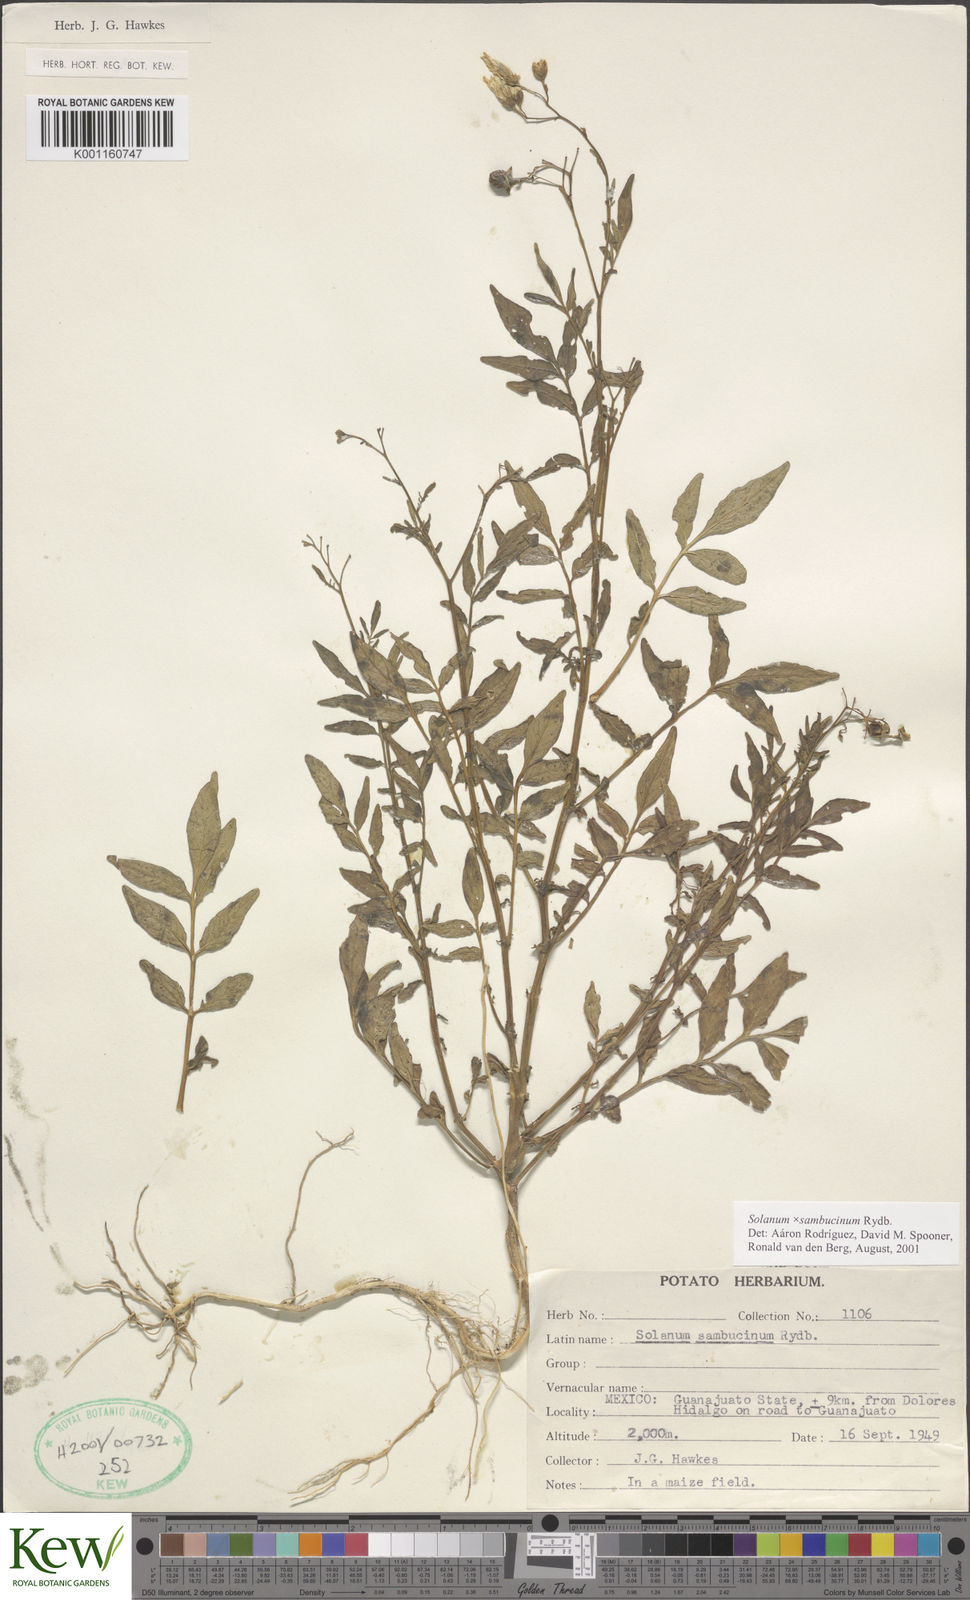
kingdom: Plantae
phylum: Tracheophyta
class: Magnoliopsida
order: Solanales
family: Solanaceae
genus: Solanum
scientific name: Solanum sambucinum
